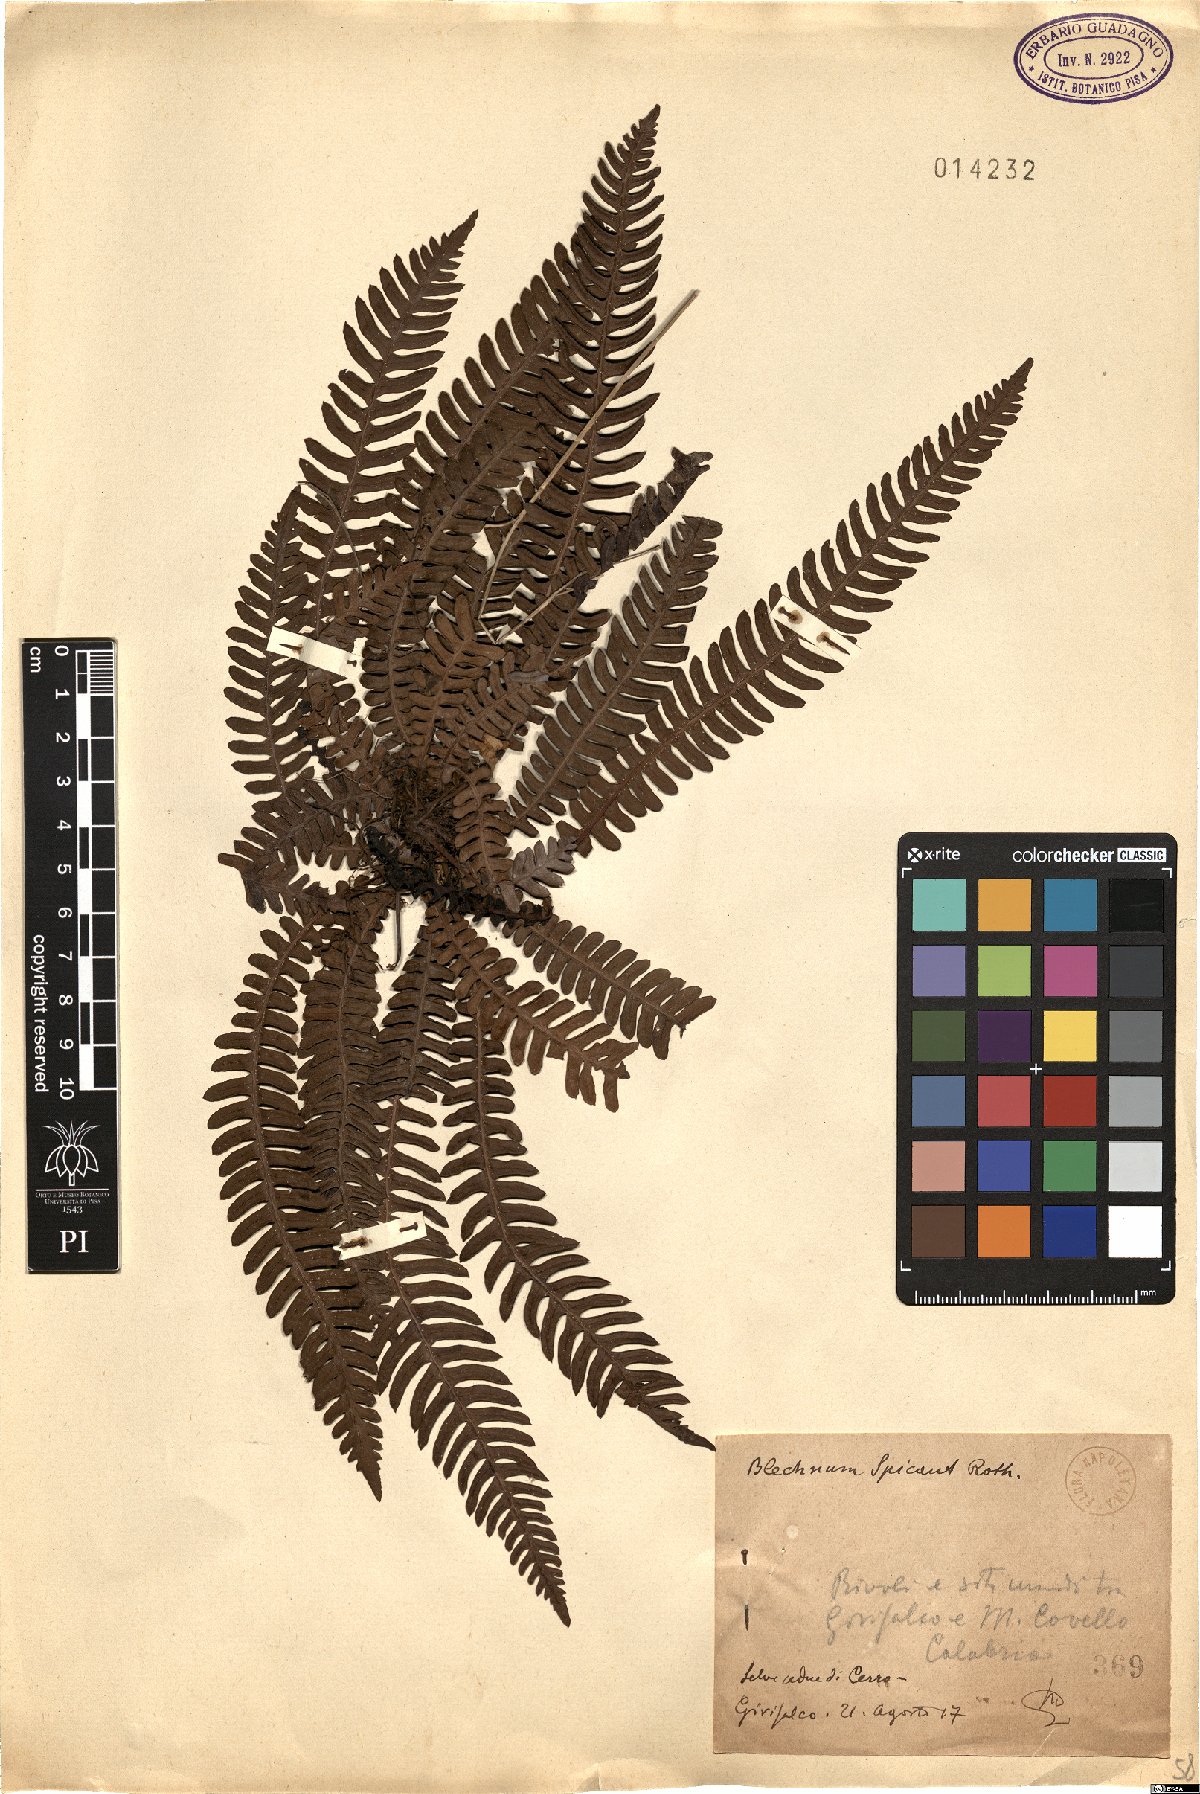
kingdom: Plantae
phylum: Tracheophyta
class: Polypodiopsida
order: Polypodiales
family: Blechnaceae
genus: Struthiopteris
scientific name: Struthiopteris spicant
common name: Deer fern
